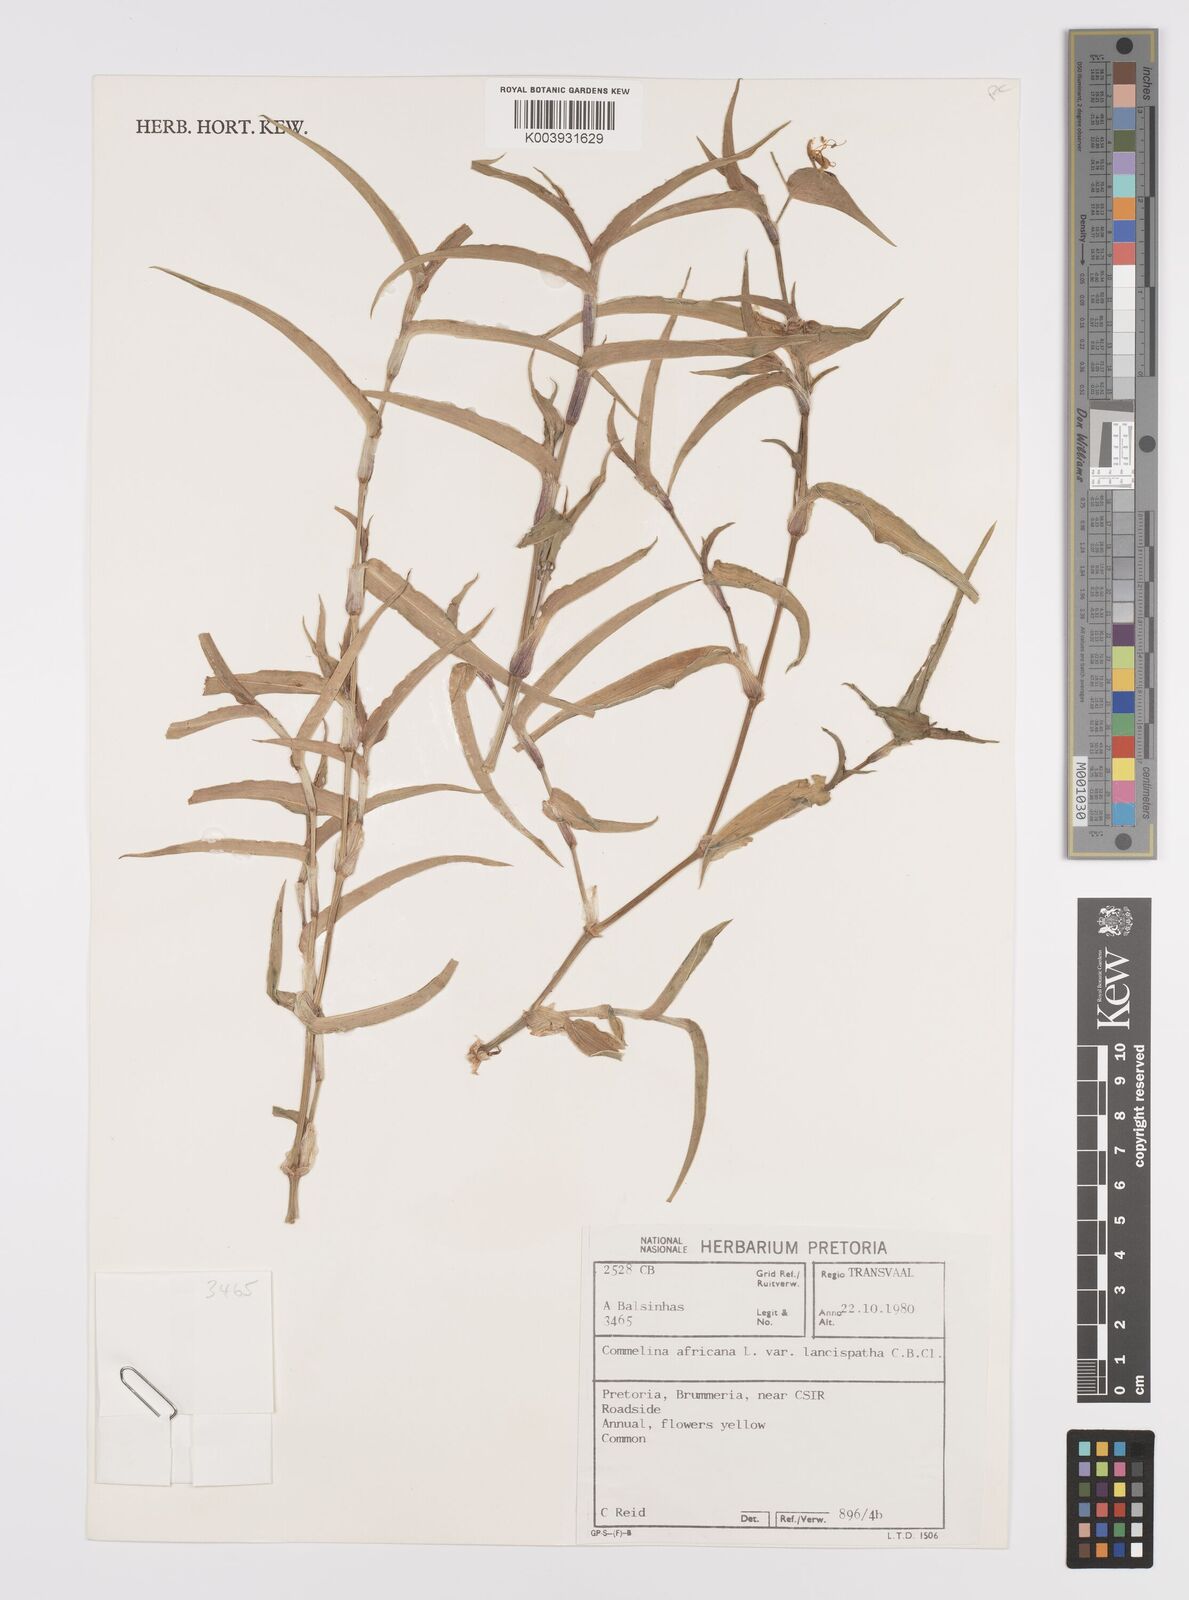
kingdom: Plantae
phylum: Tracheophyta
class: Liliopsida
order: Commelinales
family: Commelinaceae
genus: Commelina
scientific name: Commelina africana
